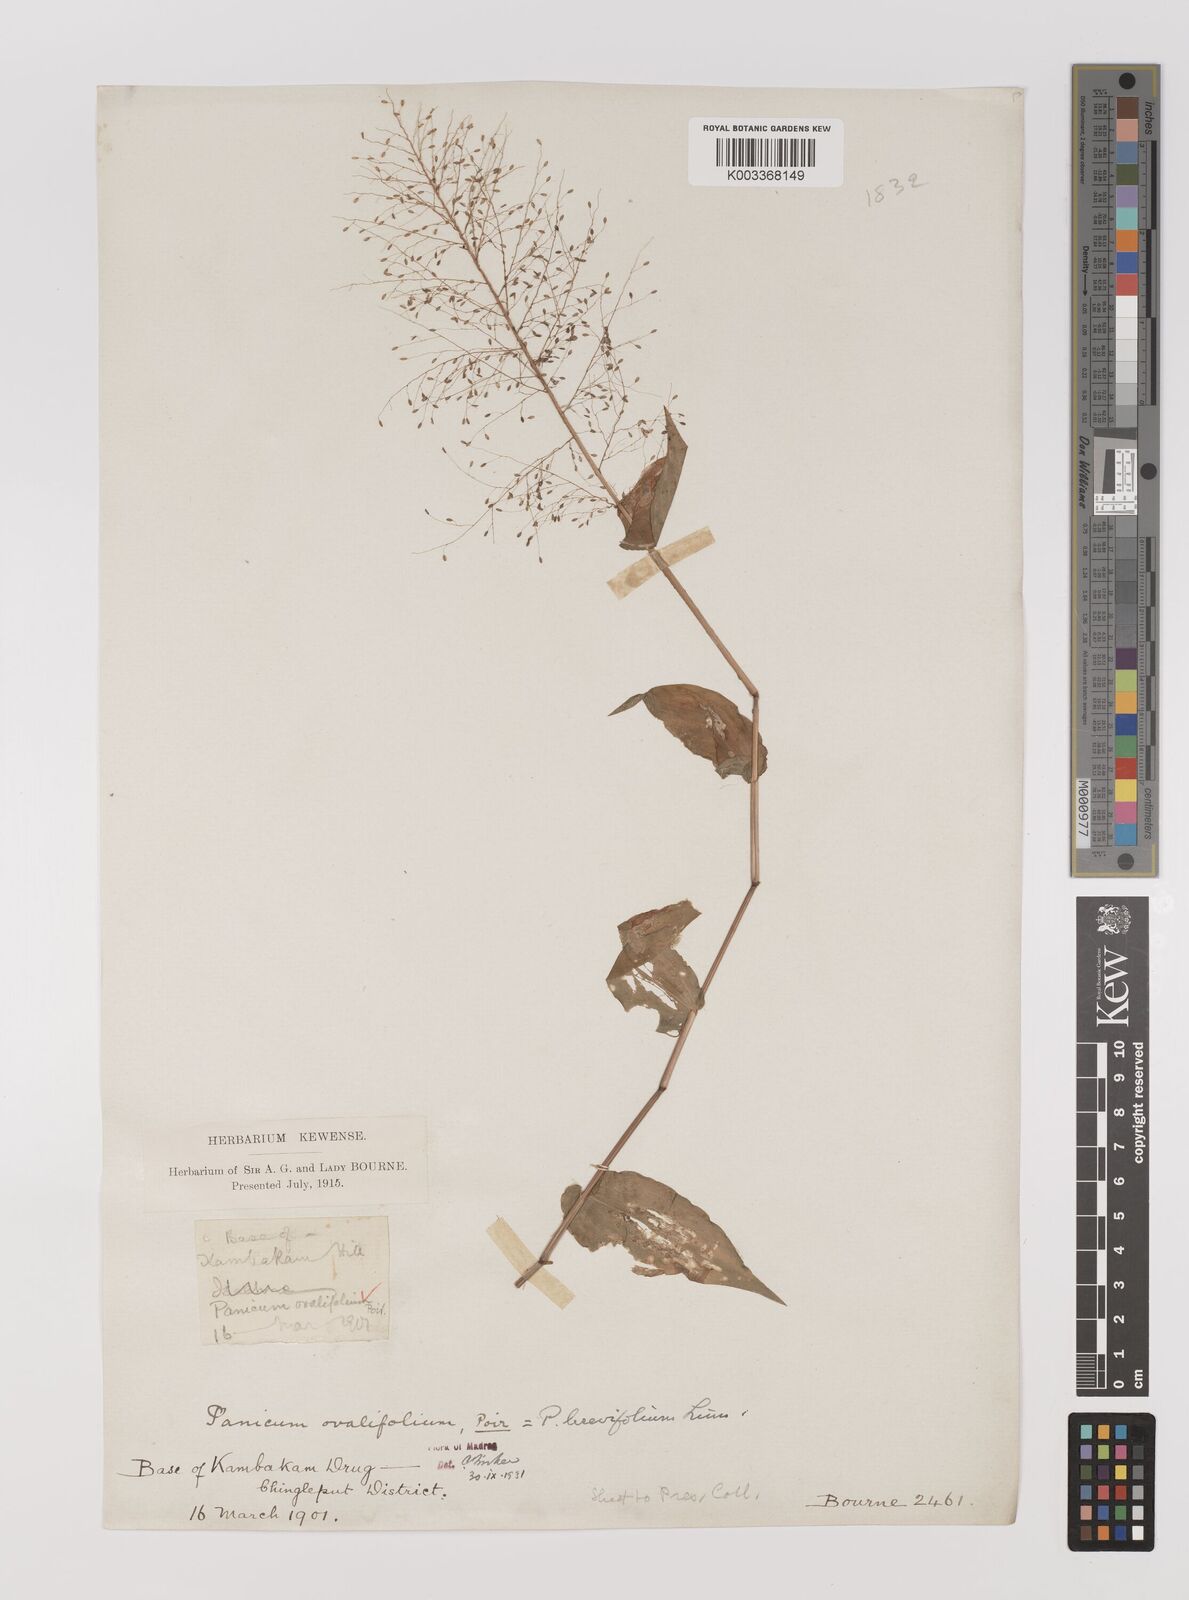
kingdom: Plantae
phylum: Tracheophyta
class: Liliopsida
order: Poales
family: Poaceae
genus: Panicum
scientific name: Panicum brevifolium
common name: Shortleaf panic grass
